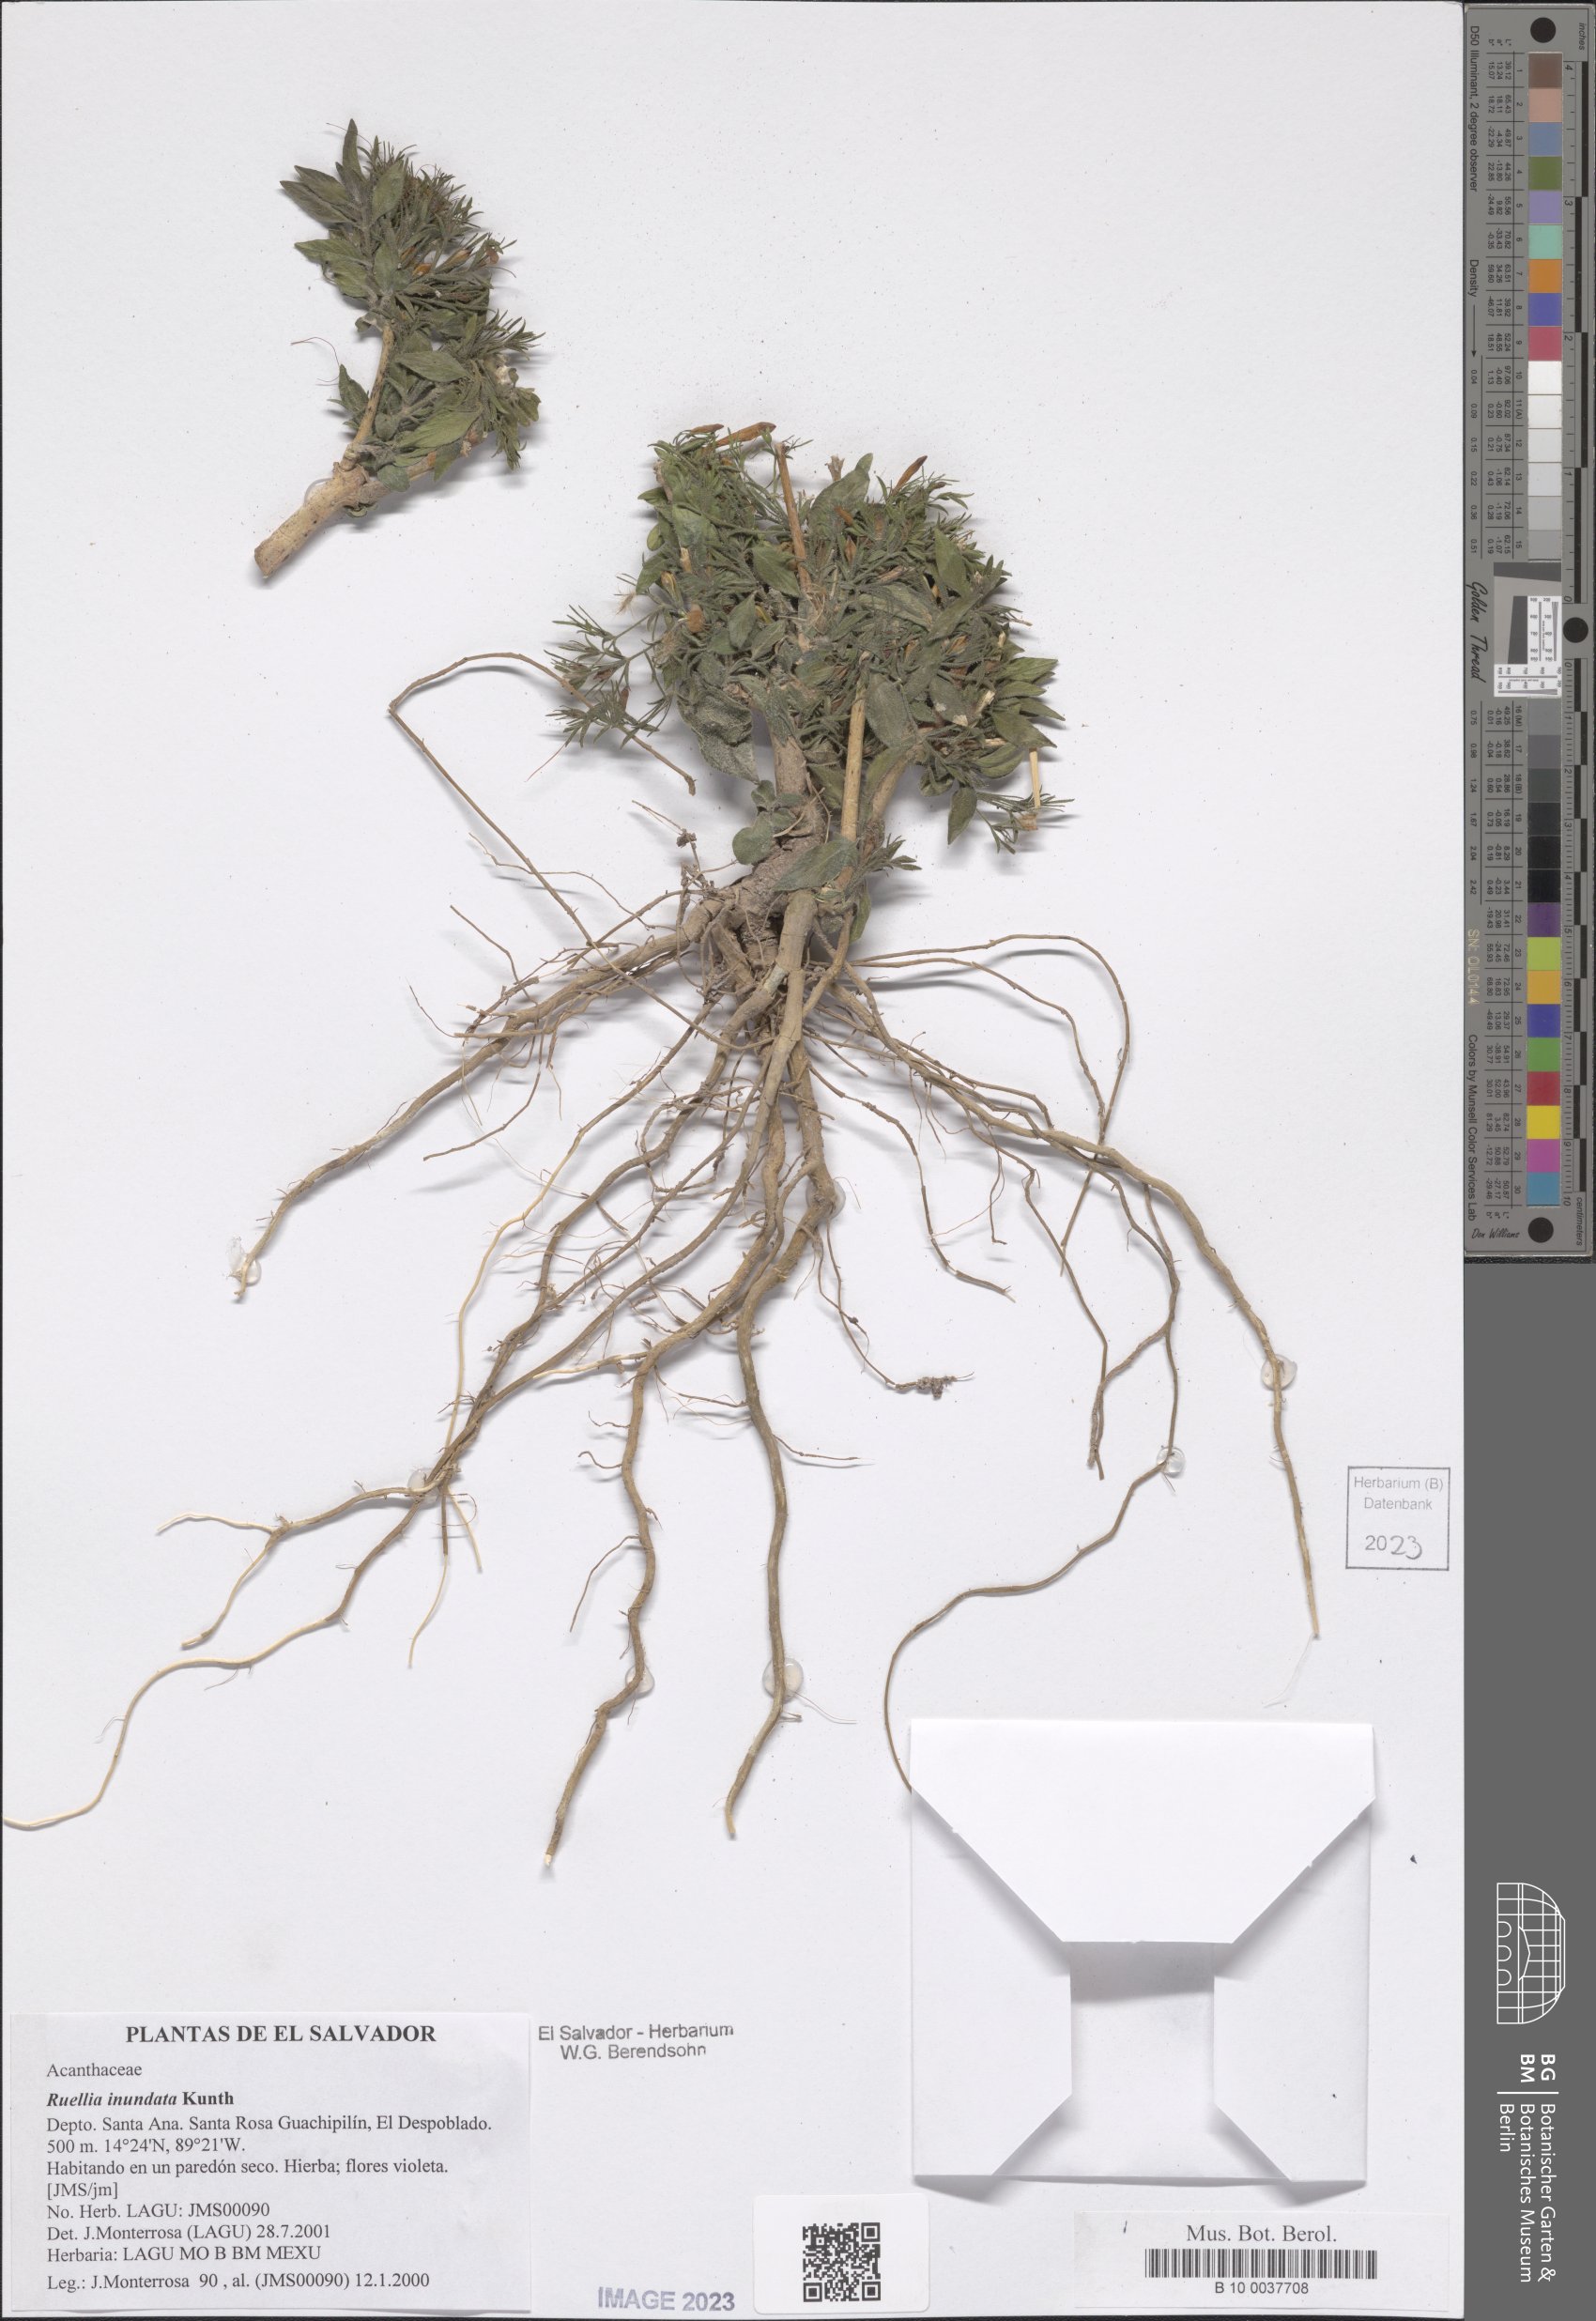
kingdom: Plantae
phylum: Tracheophyta
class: Magnoliopsida
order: Lamiales
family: Acanthaceae
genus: Ruellia
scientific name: Ruellia inundata
